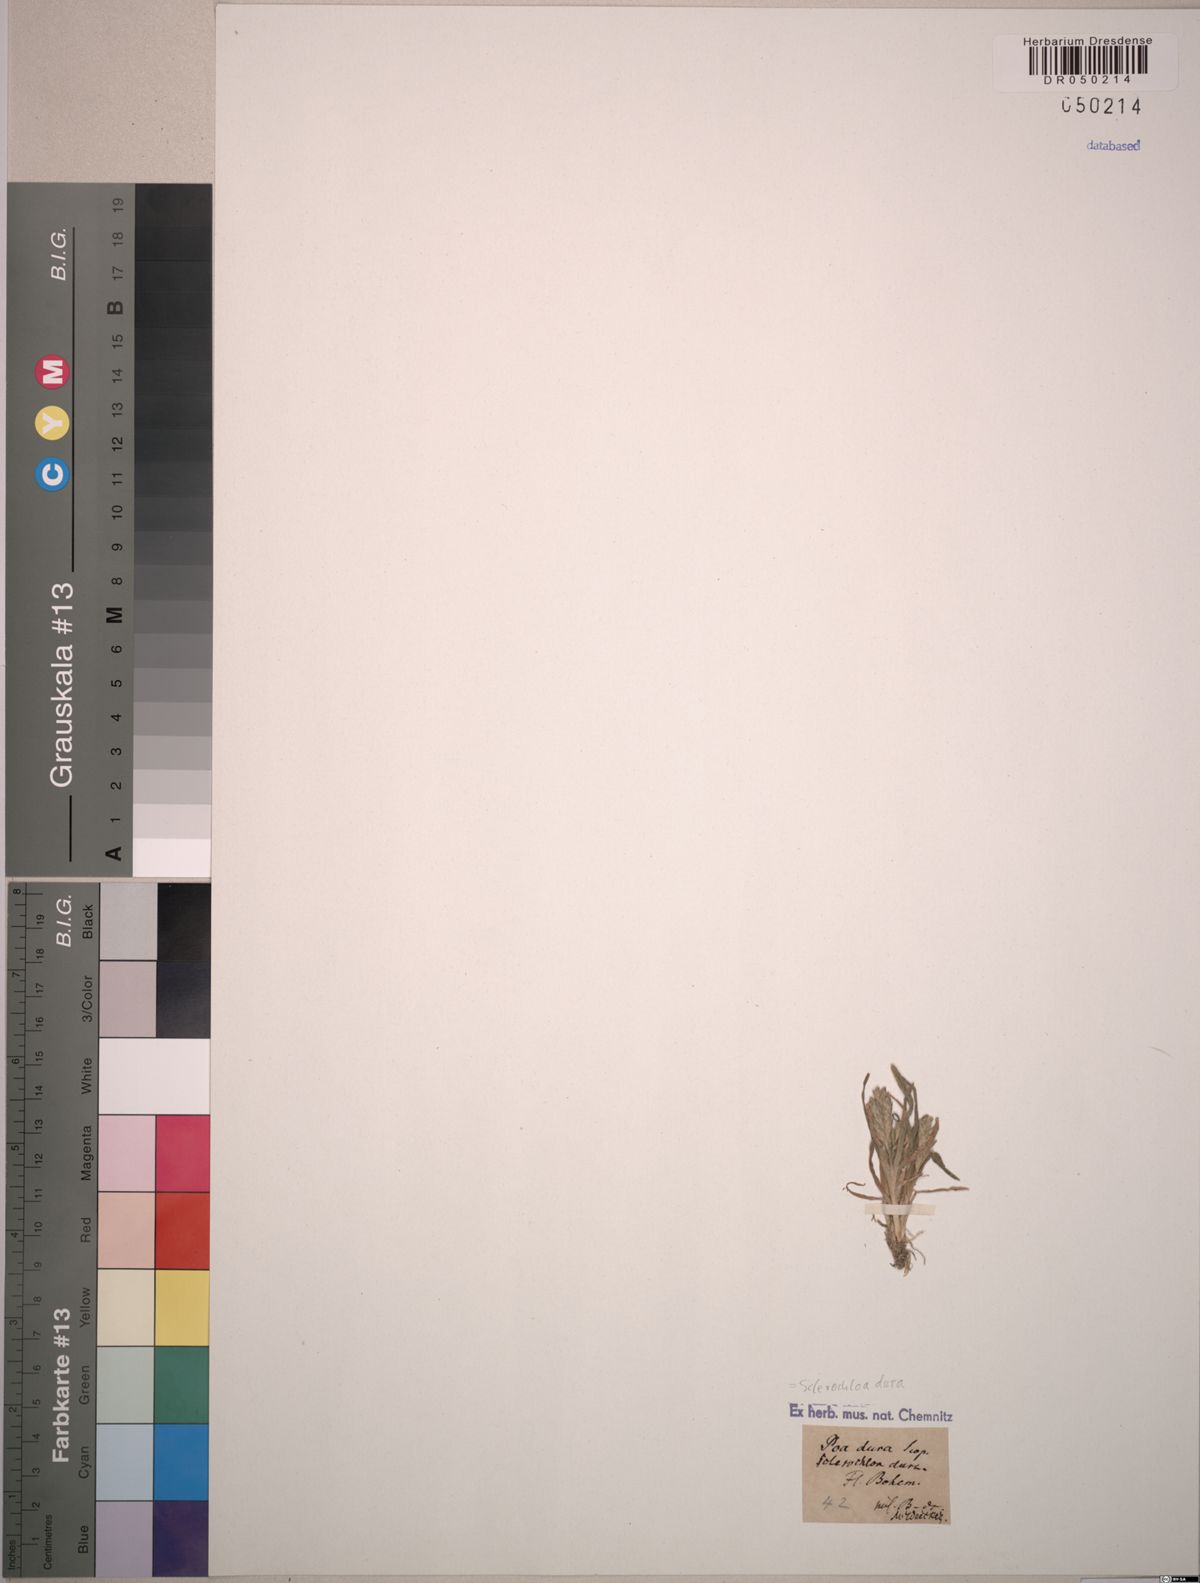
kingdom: Plantae
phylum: Tracheophyta
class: Liliopsida
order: Poales
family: Poaceae
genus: Sclerochloa
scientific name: Sclerochloa dura
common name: Common hardgrass
